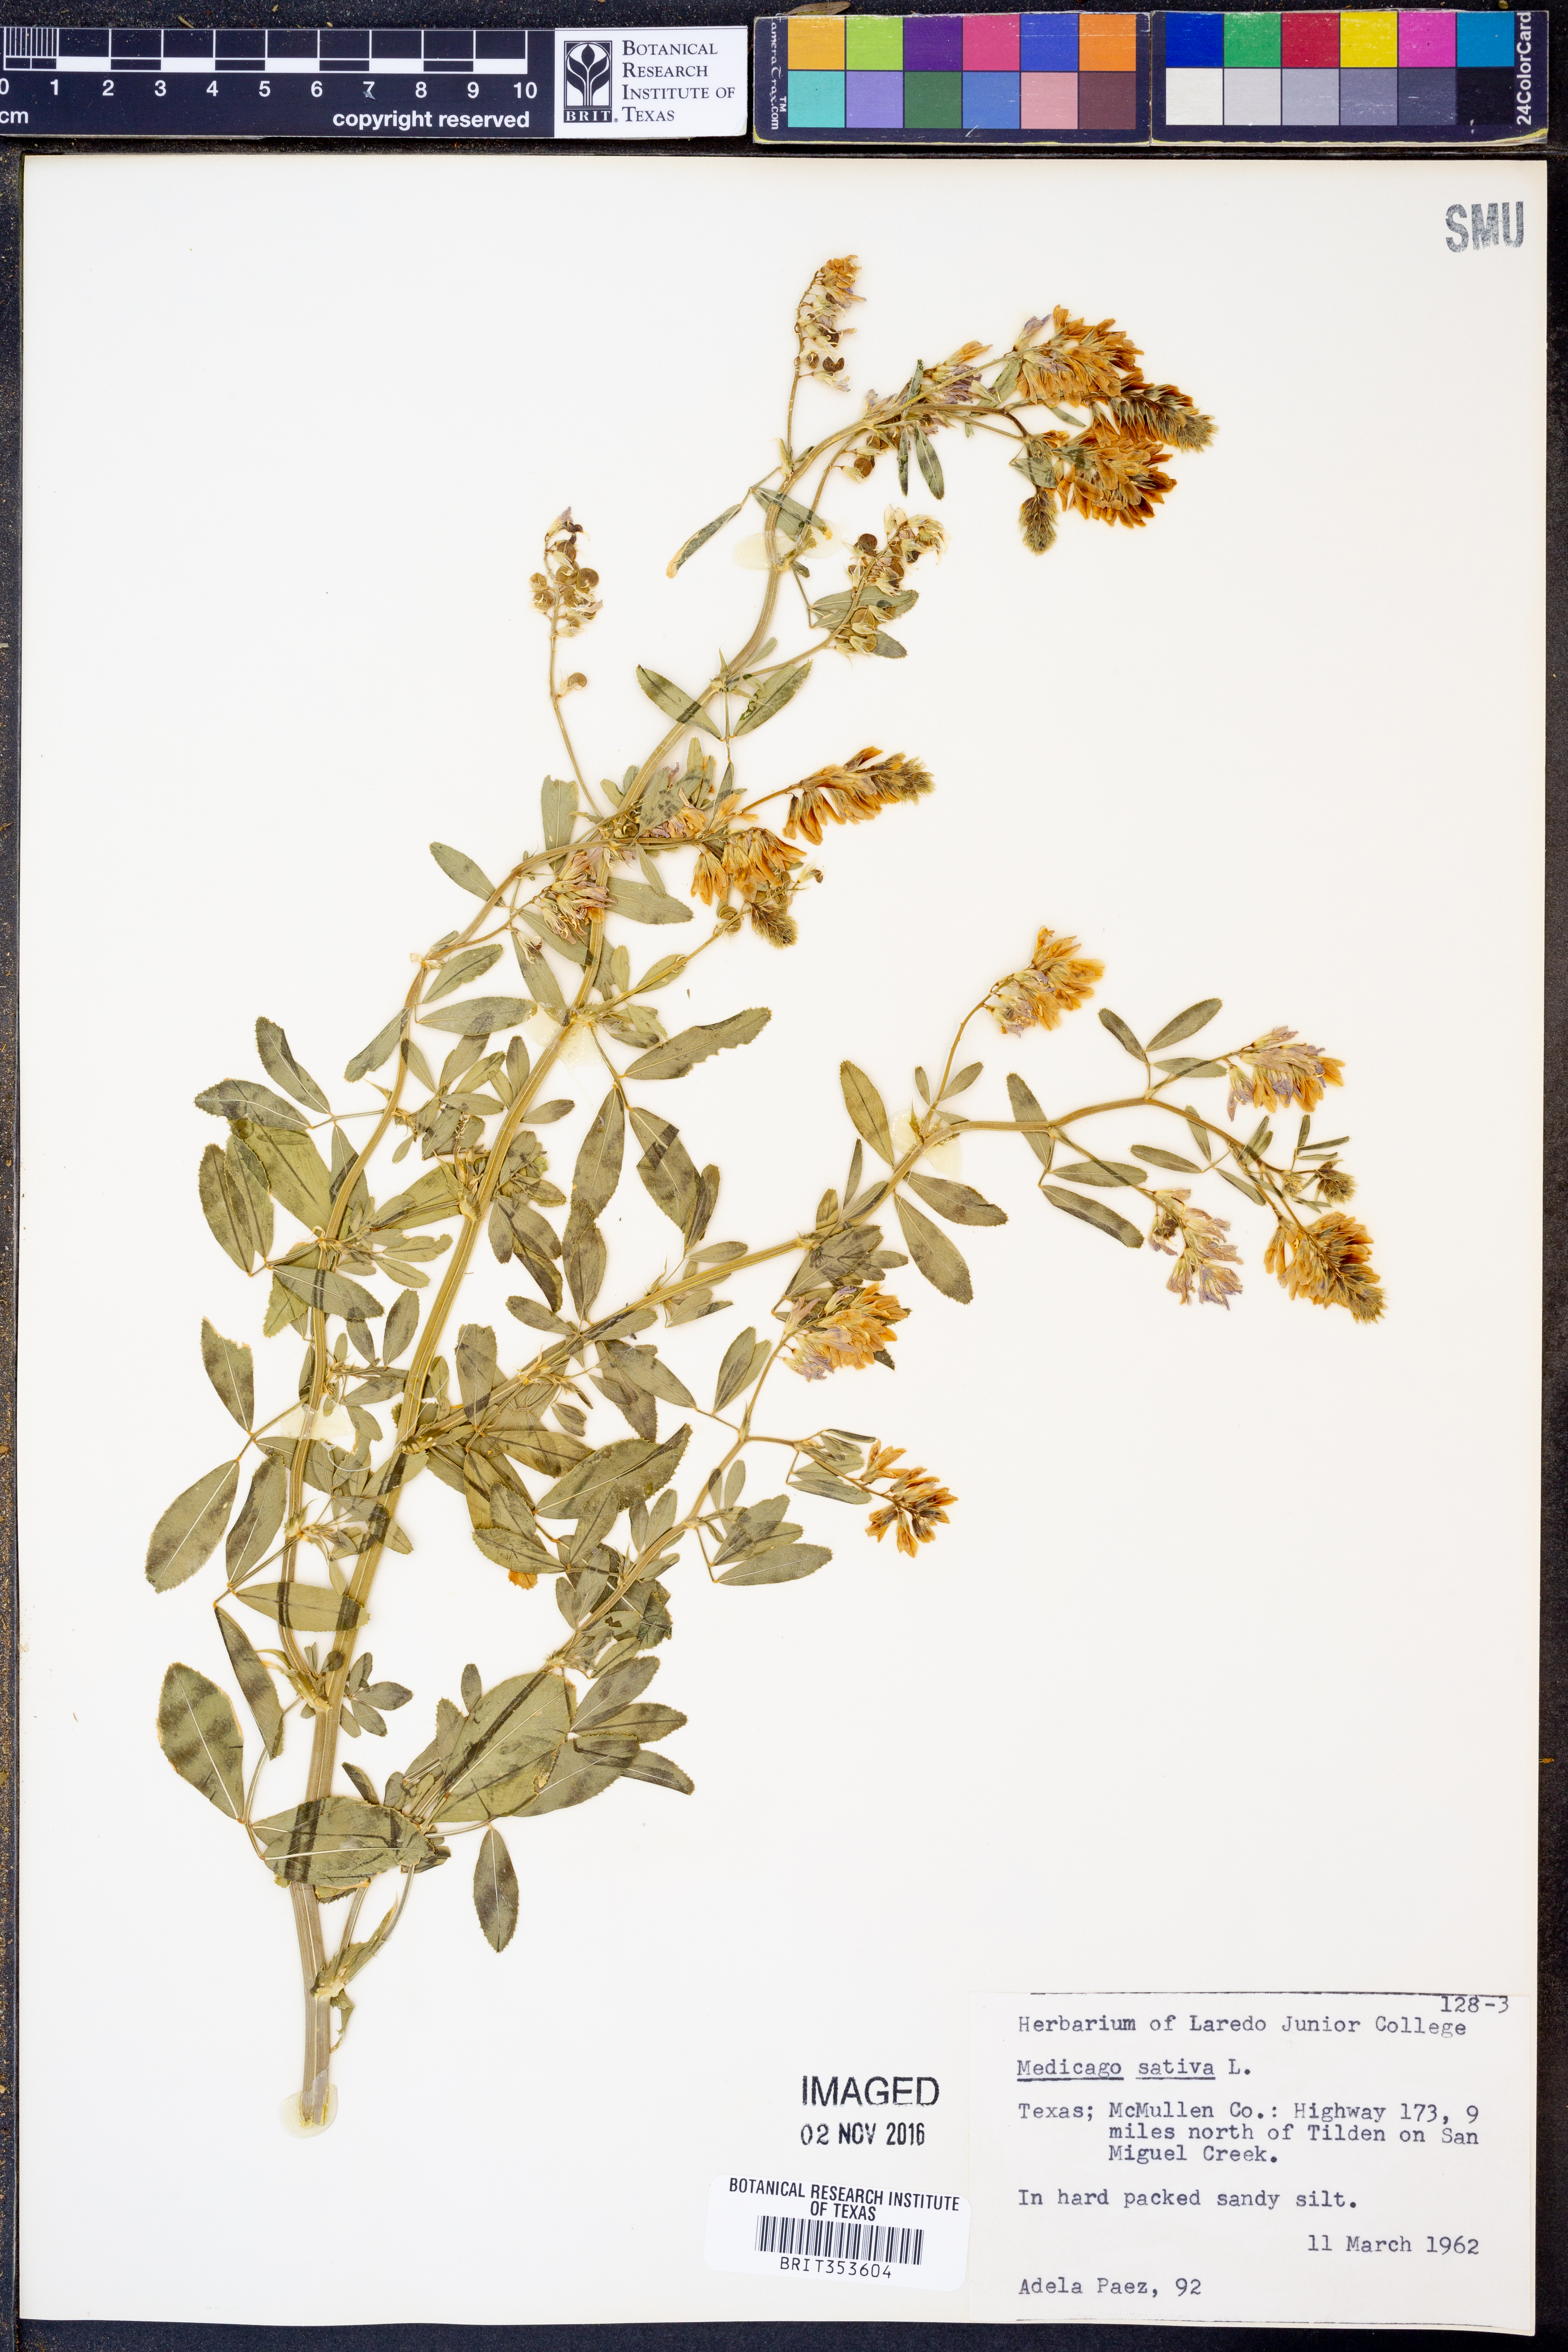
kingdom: Plantae
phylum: Tracheophyta
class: Magnoliopsida
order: Fabales
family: Fabaceae
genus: Medicago
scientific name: Medicago sativa
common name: Alfalfa
